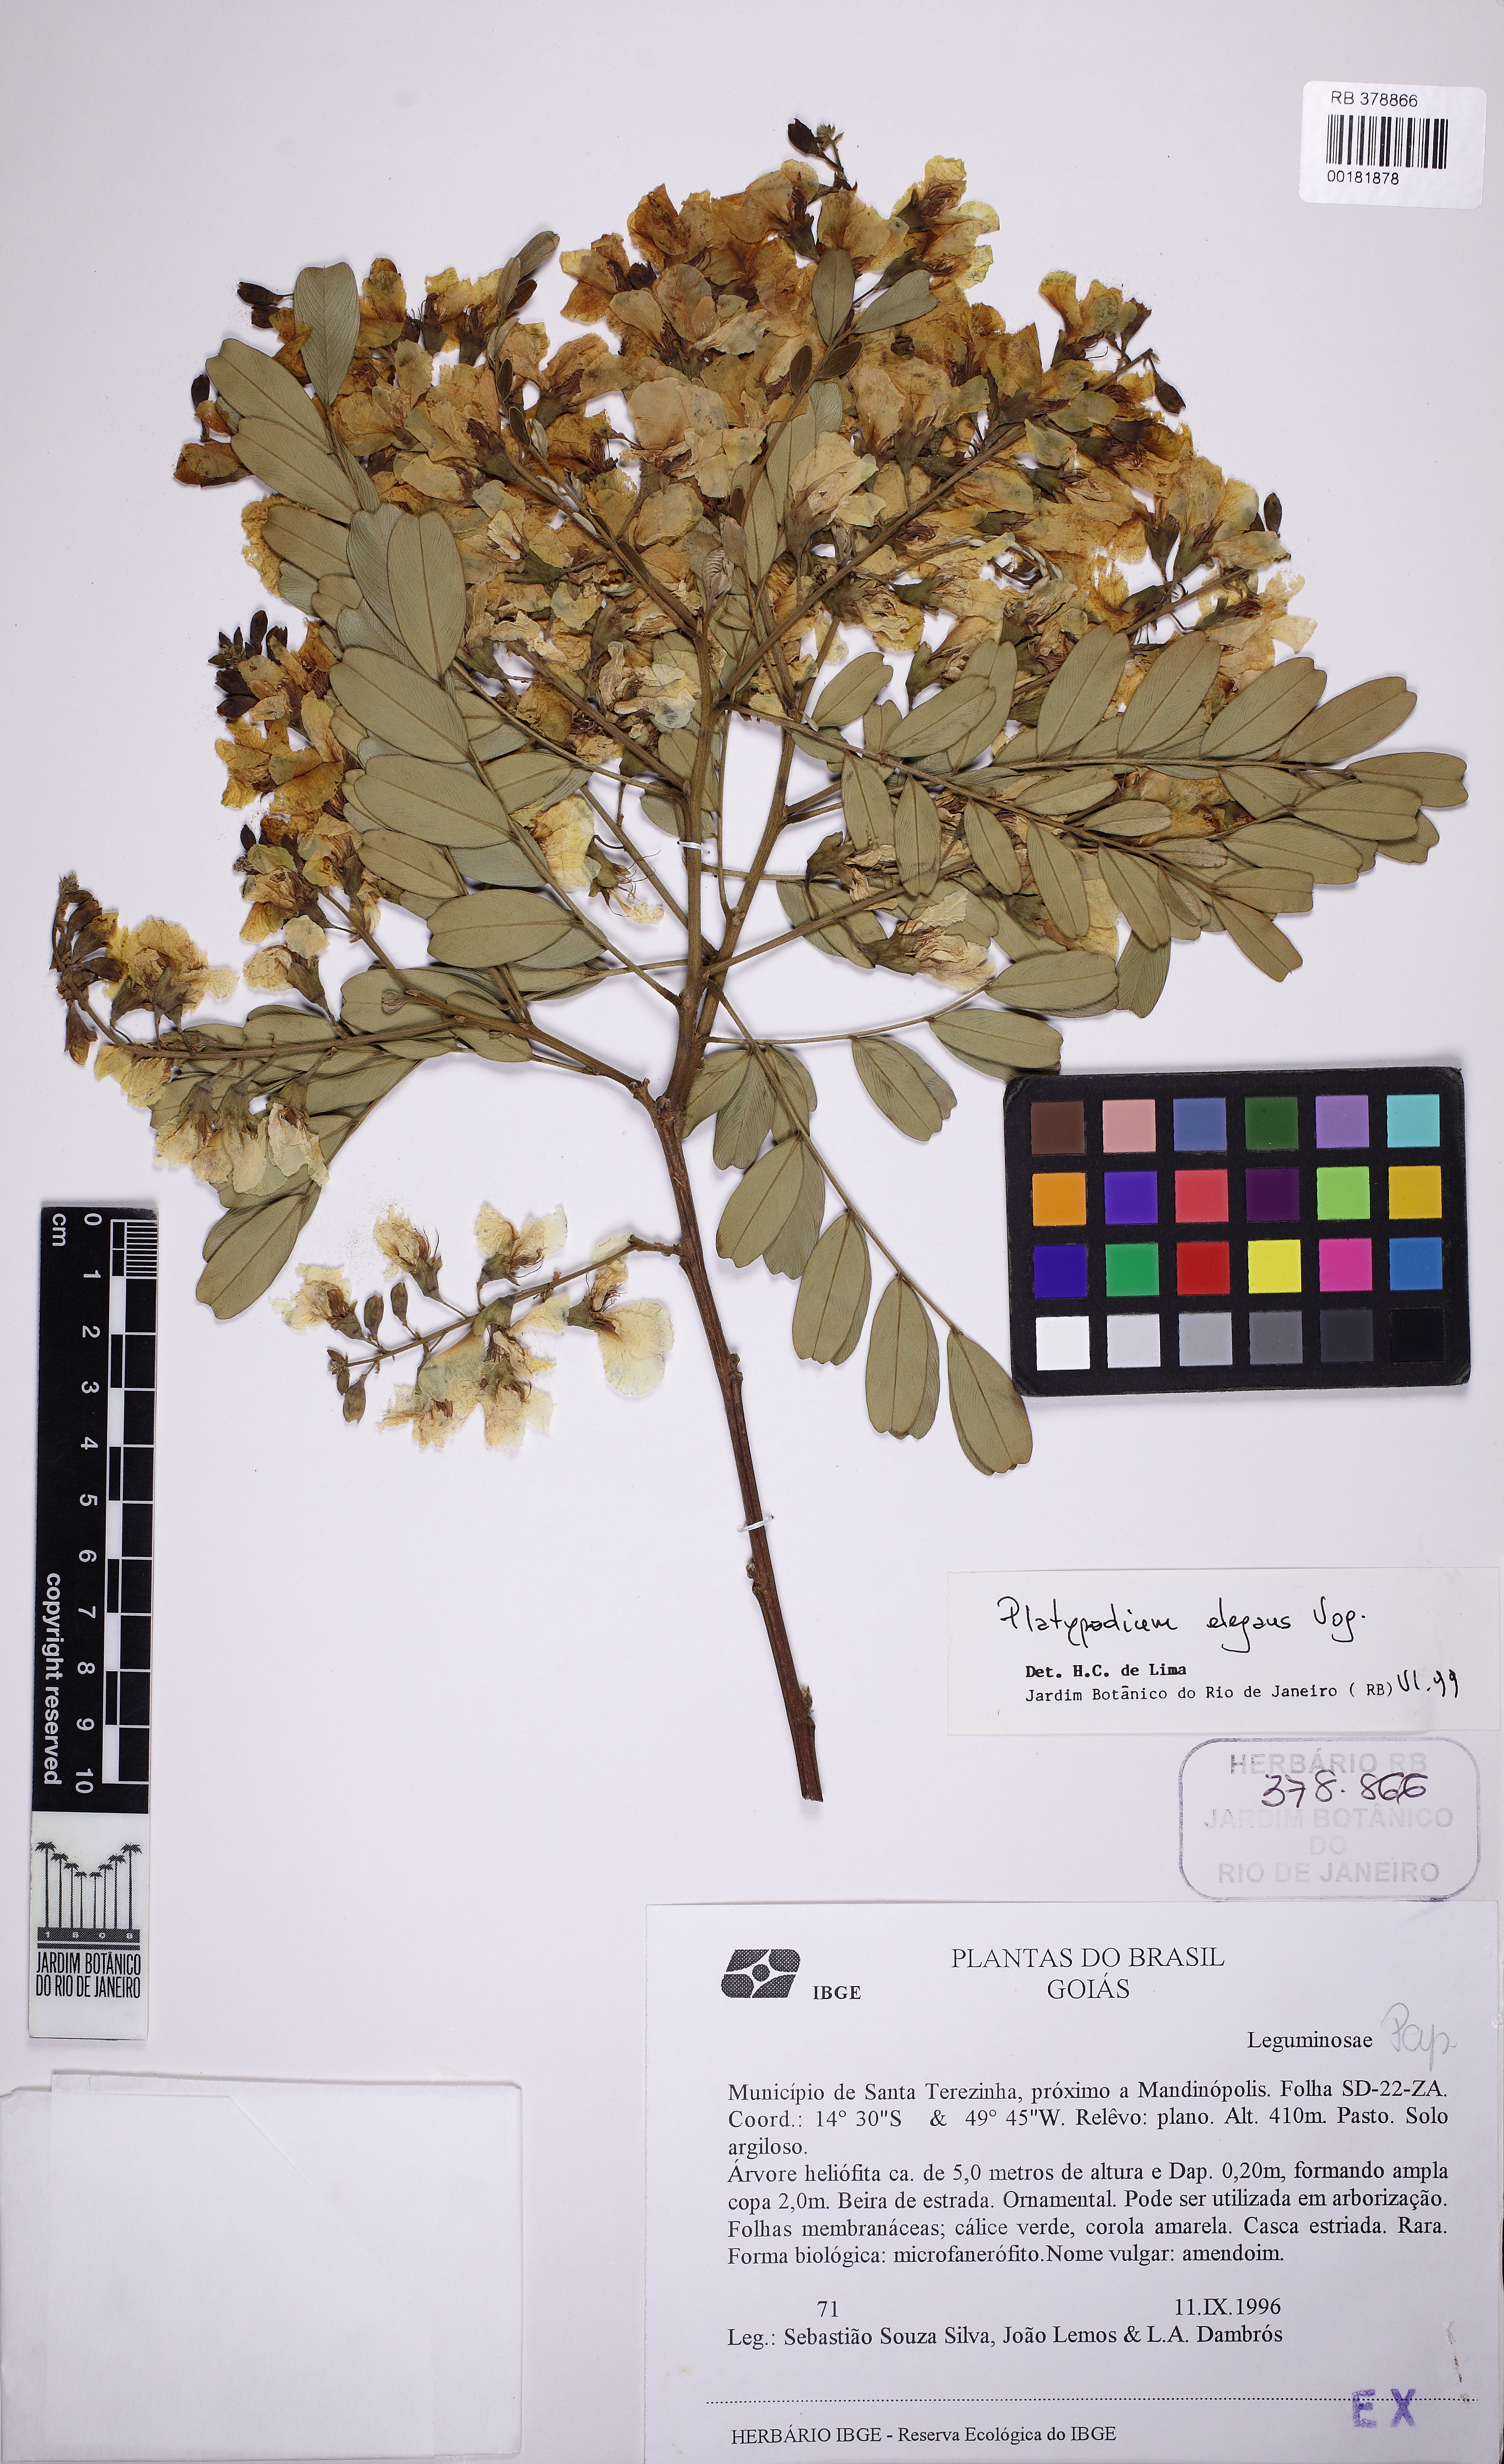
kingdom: Plantae
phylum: Tracheophyta
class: Magnoliopsida
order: Fabales
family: Fabaceae
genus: Platypodium
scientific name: Platypodium elegans
